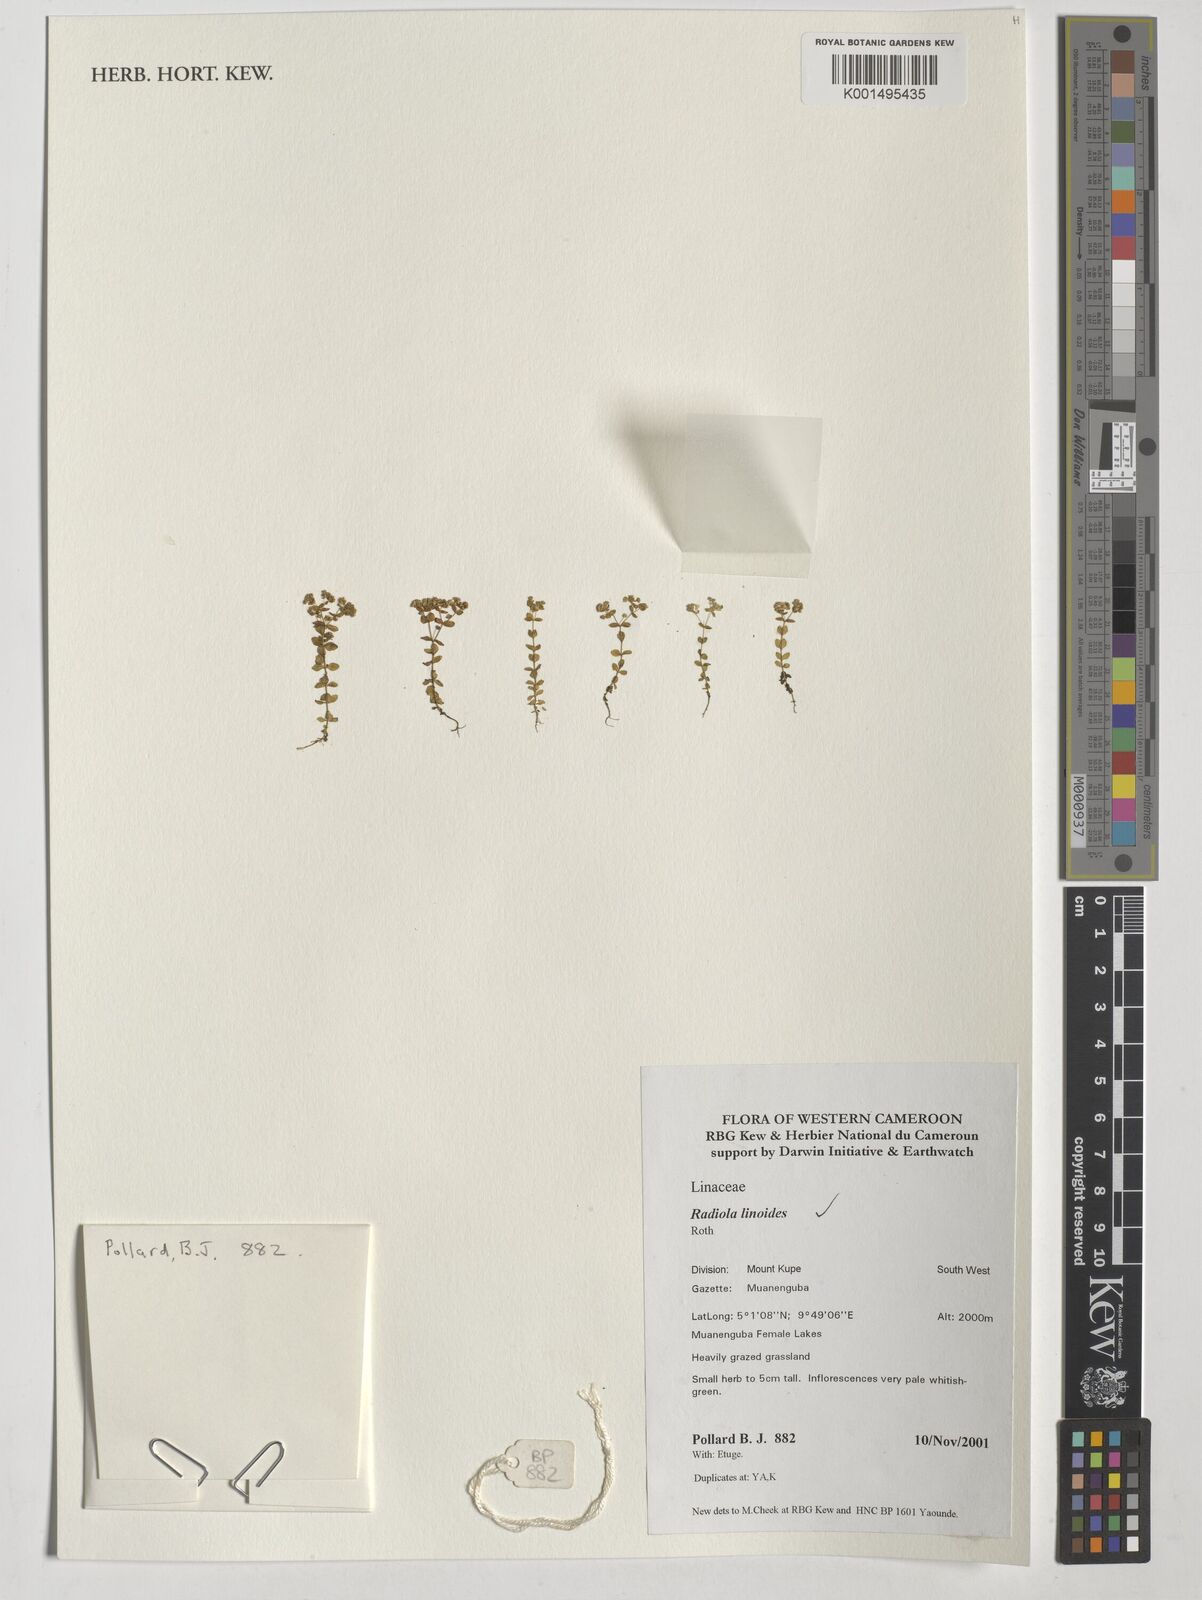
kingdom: Plantae
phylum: Tracheophyta
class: Magnoliopsida
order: Malpighiales
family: Linaceae
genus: Radiola
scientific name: Radiola linoides
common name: Allseed
